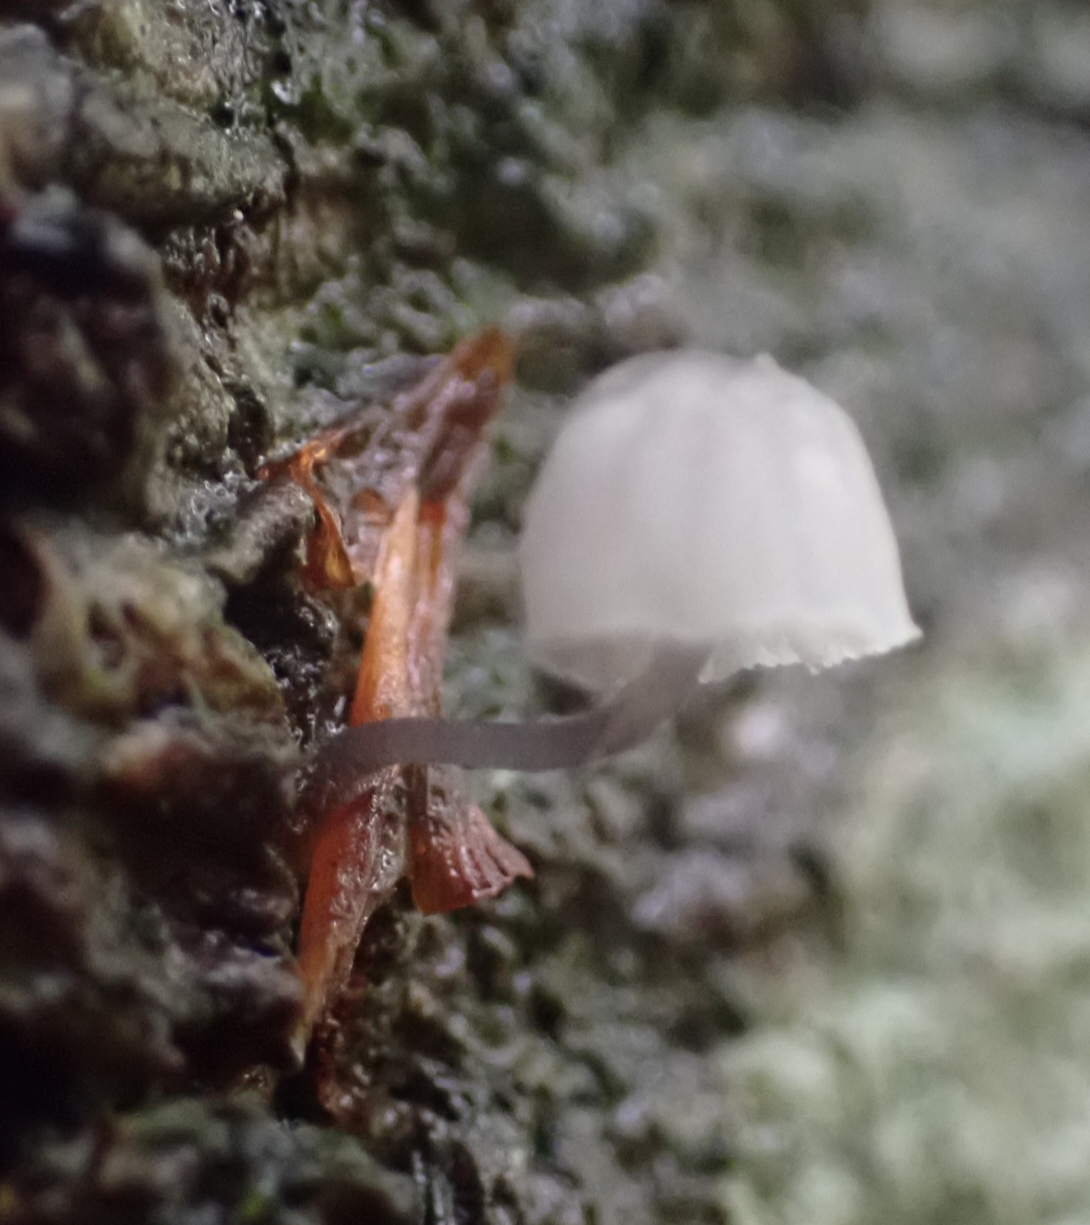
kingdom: Fungi
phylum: Basidiomycota
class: Agaricomycetes
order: Agaricales
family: Mycenaceae
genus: Mycena
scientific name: Mycena pseudocorticola
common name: gråblå bark-huesvamp
